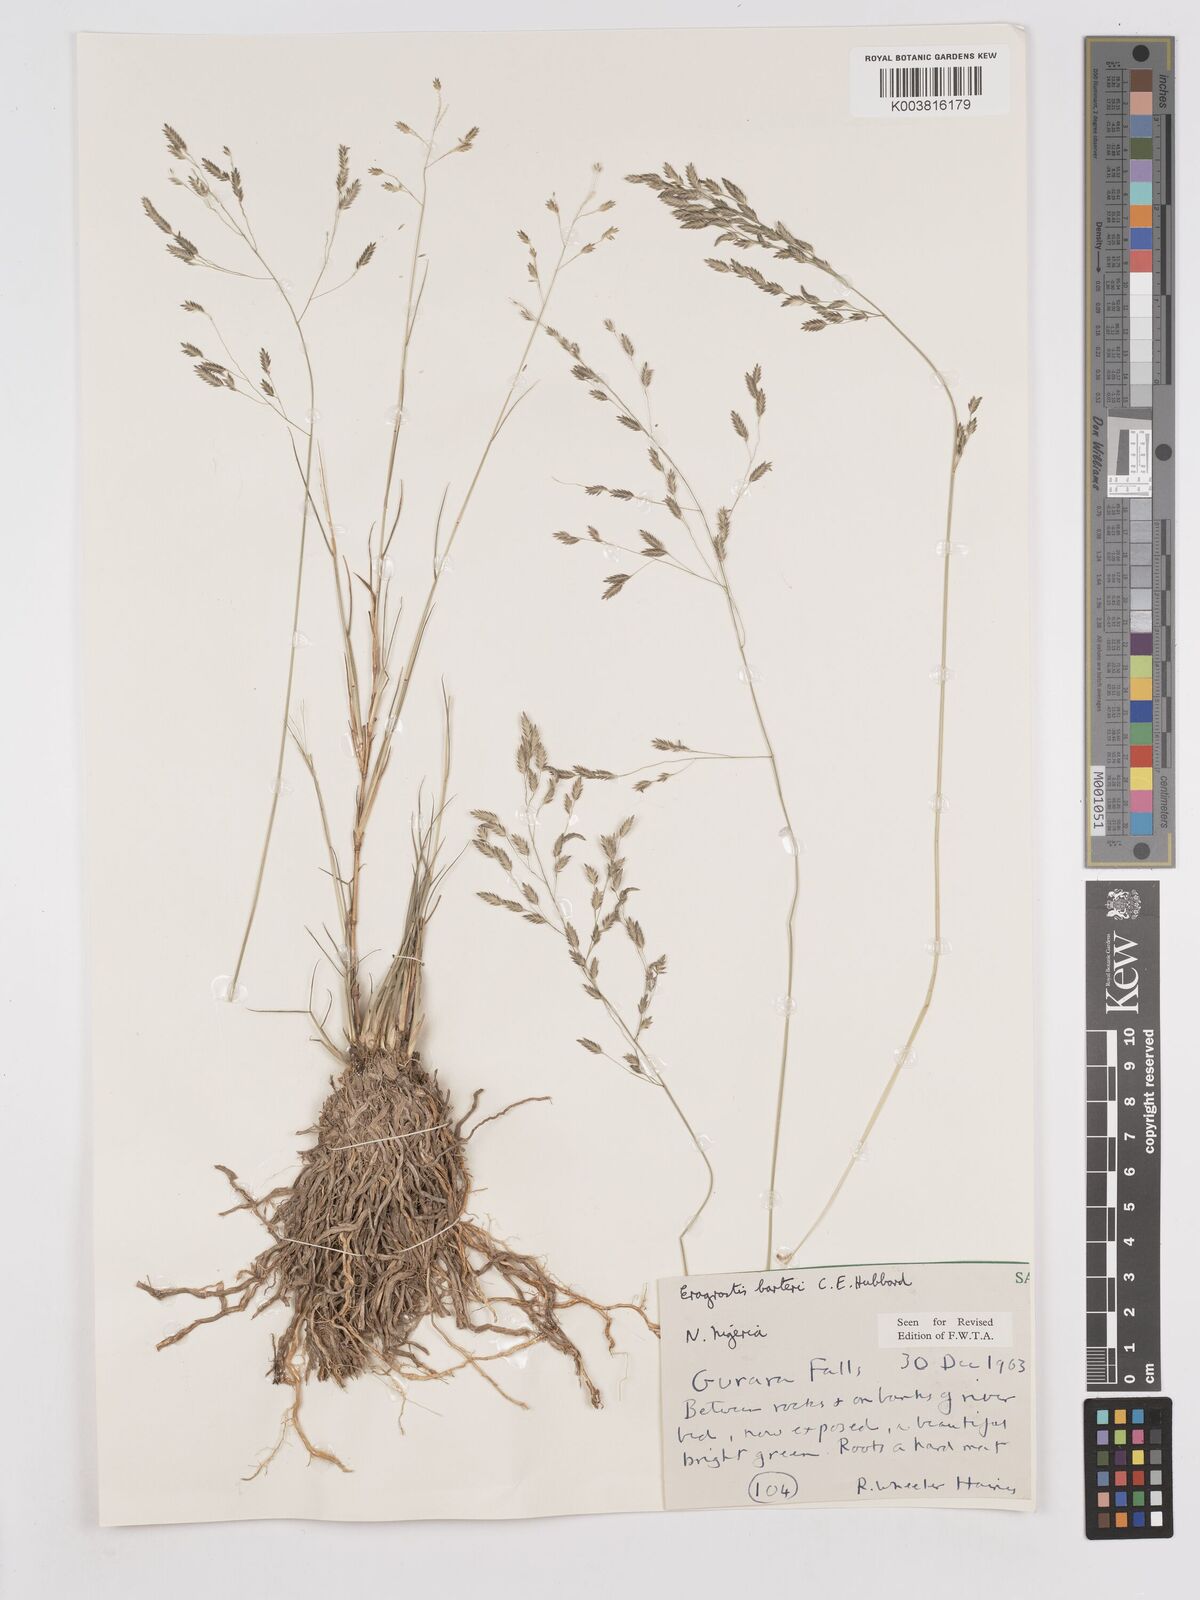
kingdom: Plantae
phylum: Tracheophyta
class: Liliopsida
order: Poales
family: Poaceae
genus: Eragrostis
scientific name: Eragrostis barteri
